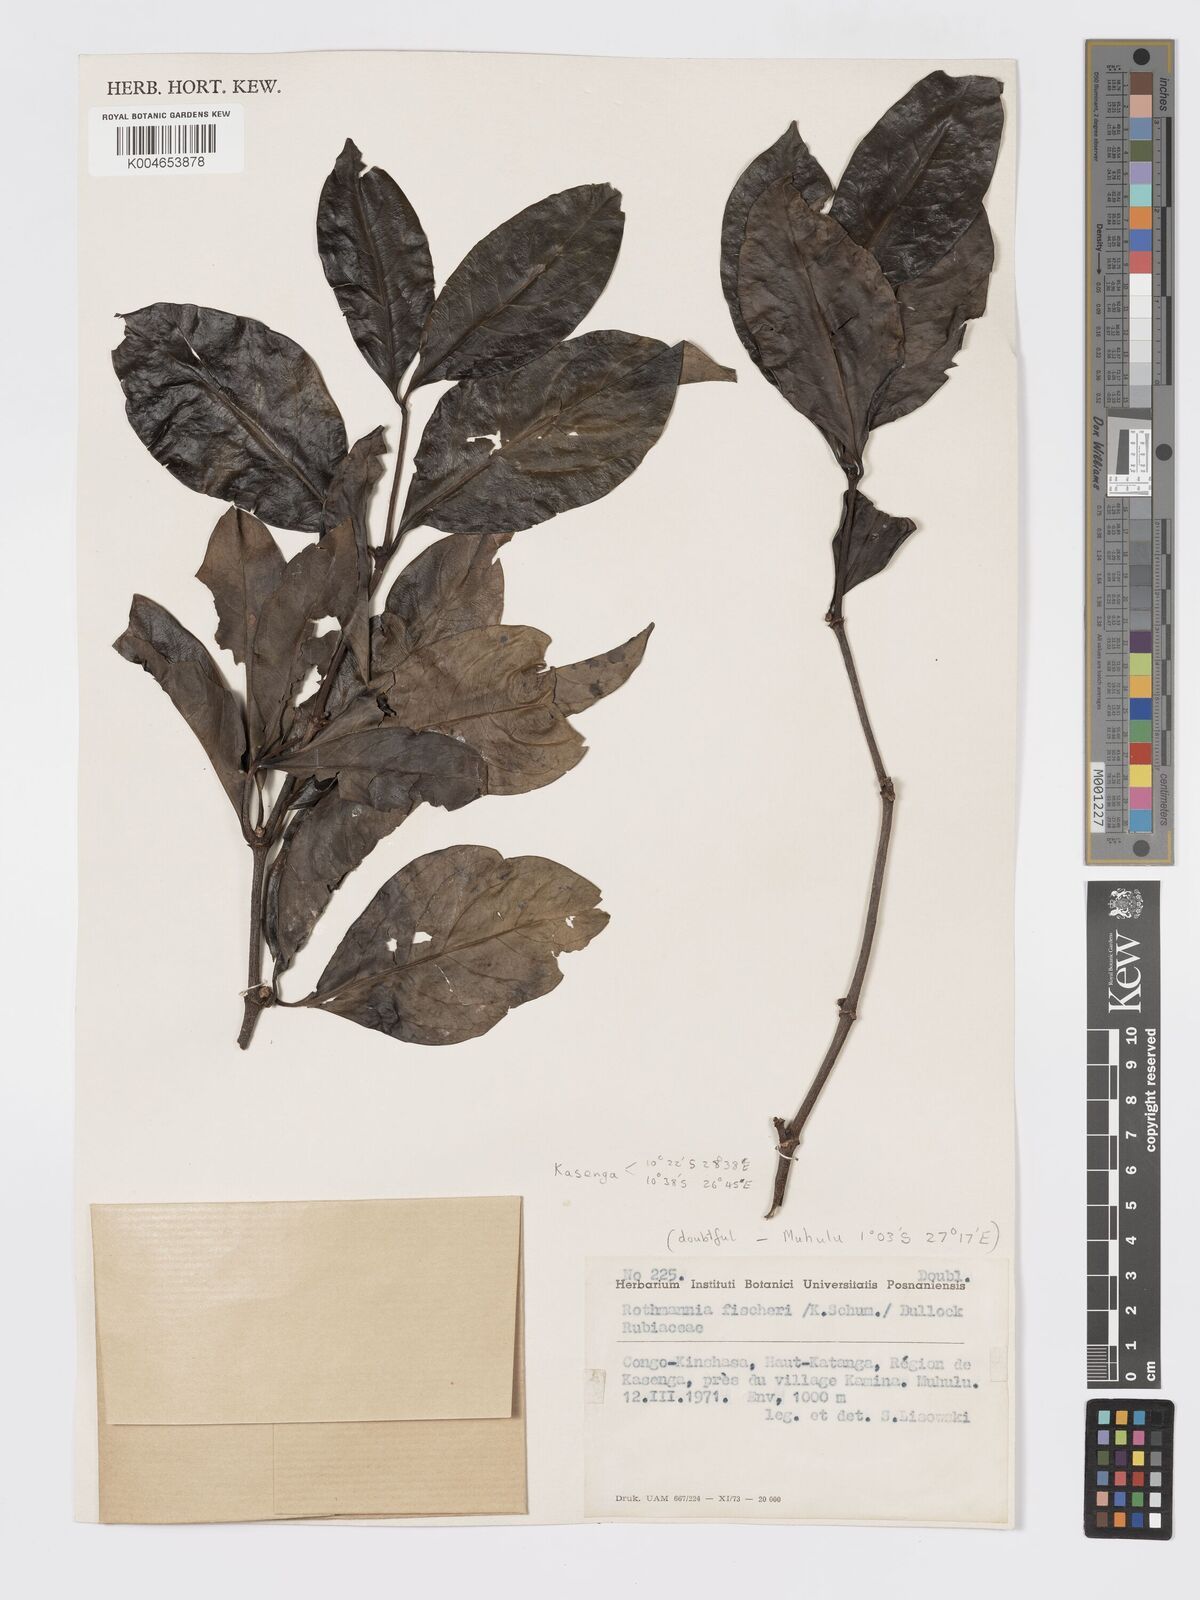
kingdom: Plantae
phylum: Tracheophyta
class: Magnoliopsida
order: Gentianales
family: Rubiaceae
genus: Rothmannia
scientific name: Rothmannia fischeri
